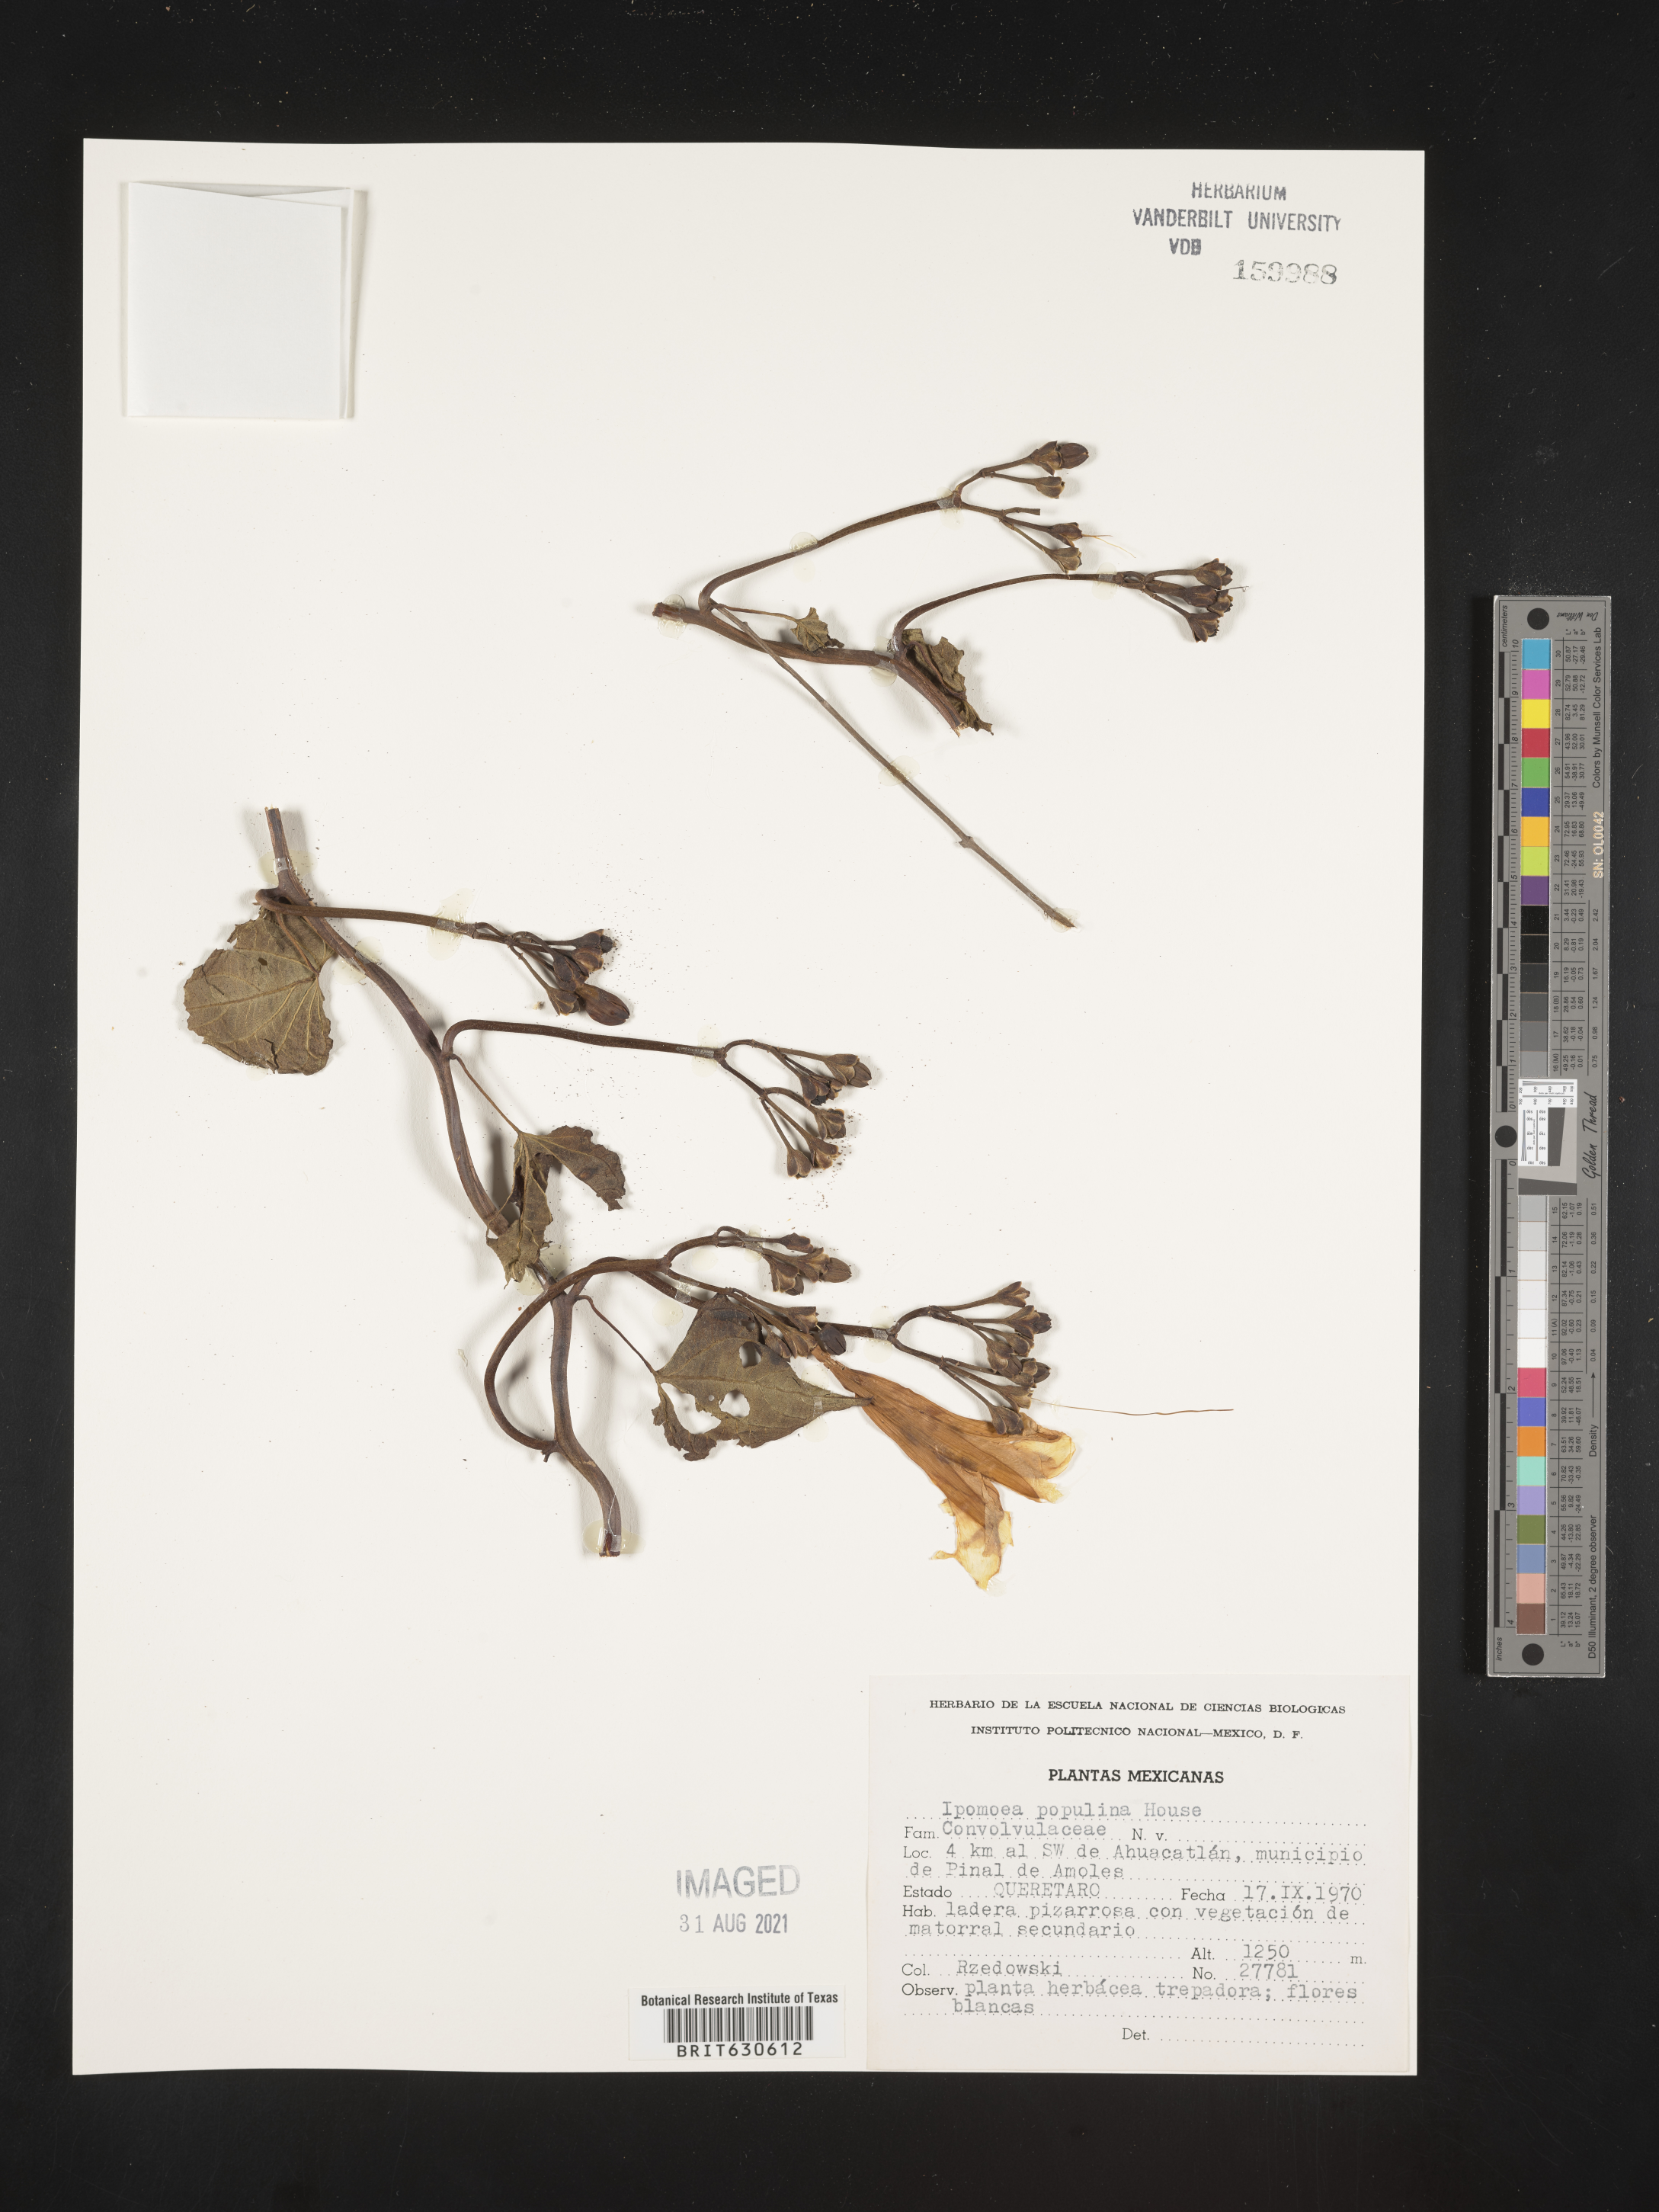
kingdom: Plantae
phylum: Tracheophyta
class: Magnoliopsida
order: Solanales
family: Convolvulaceae
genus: Ipomoea
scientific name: Ipomoea
